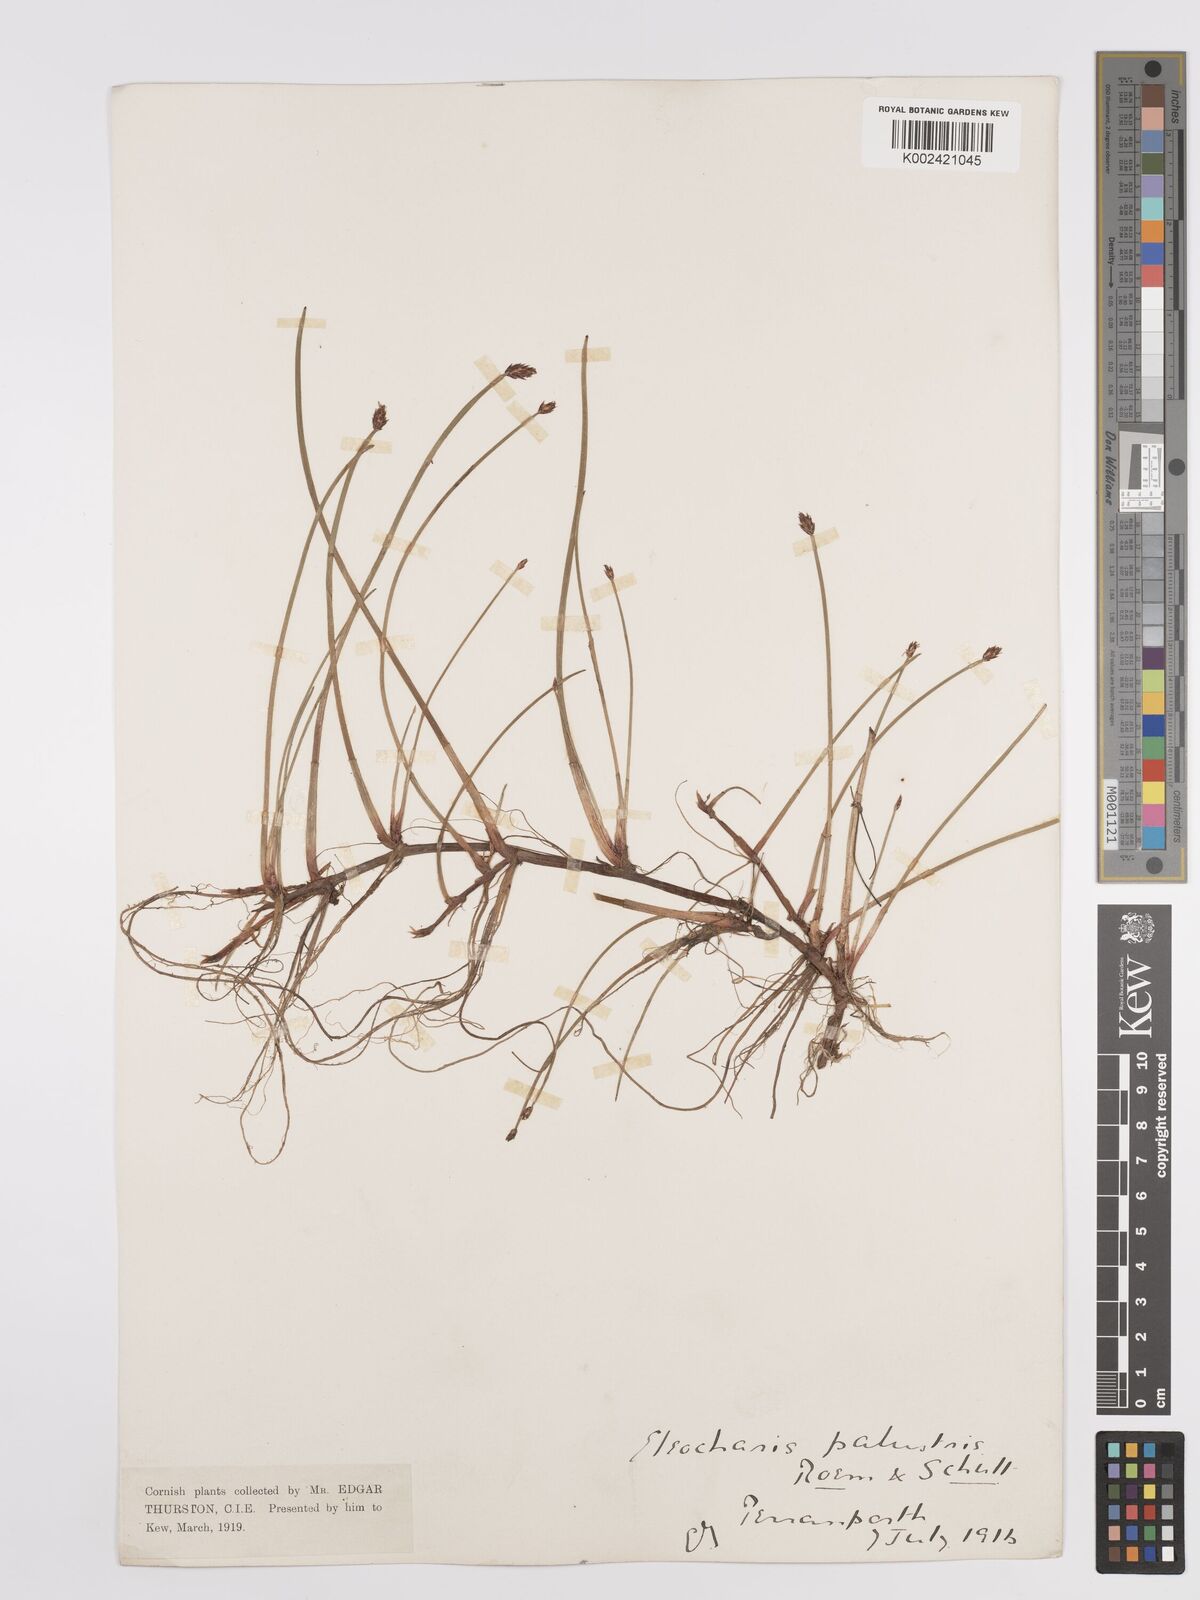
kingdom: Plantae
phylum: Tracheophyta
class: Liliopsida
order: Poales
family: Cyperaceae
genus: Eleocharis
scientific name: Eleocharis palustris
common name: Common spike-rush
